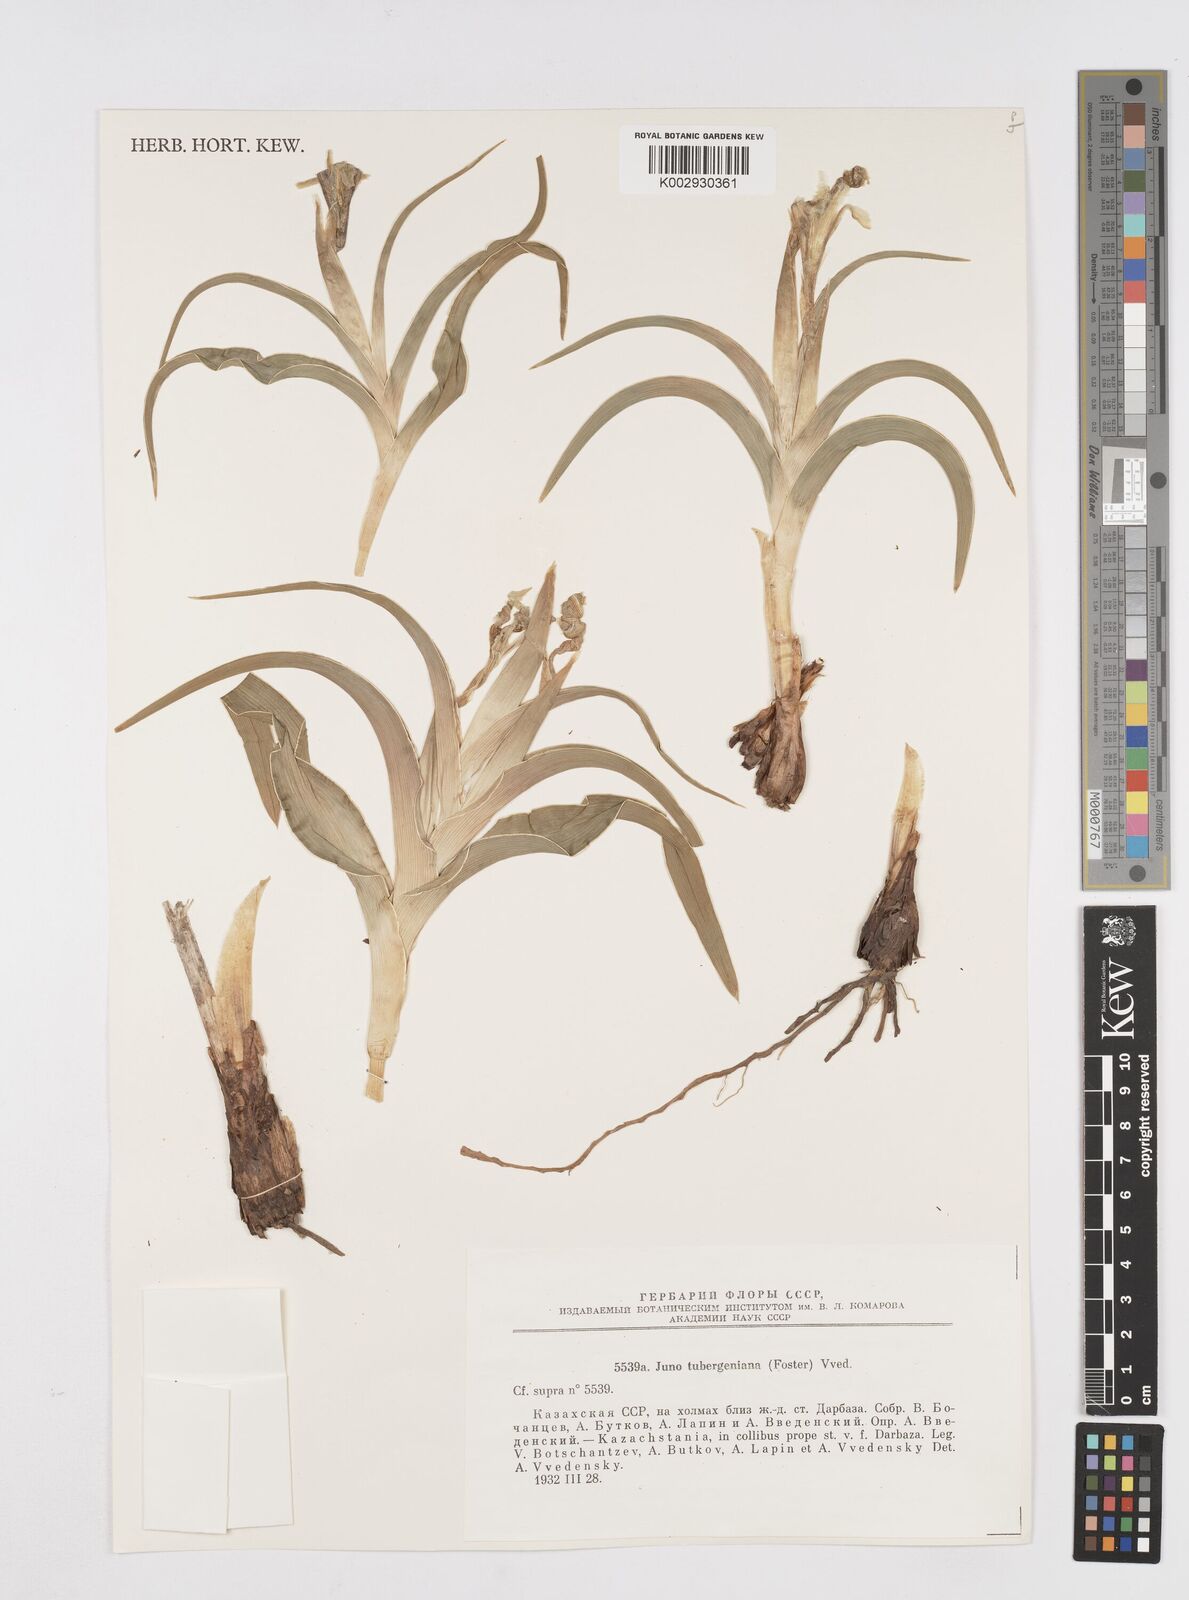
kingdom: Plantae
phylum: Tracheophyta
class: Liliopsida
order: Asparagales
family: Iridaceae
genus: Iris
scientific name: Iris tubergeniana
